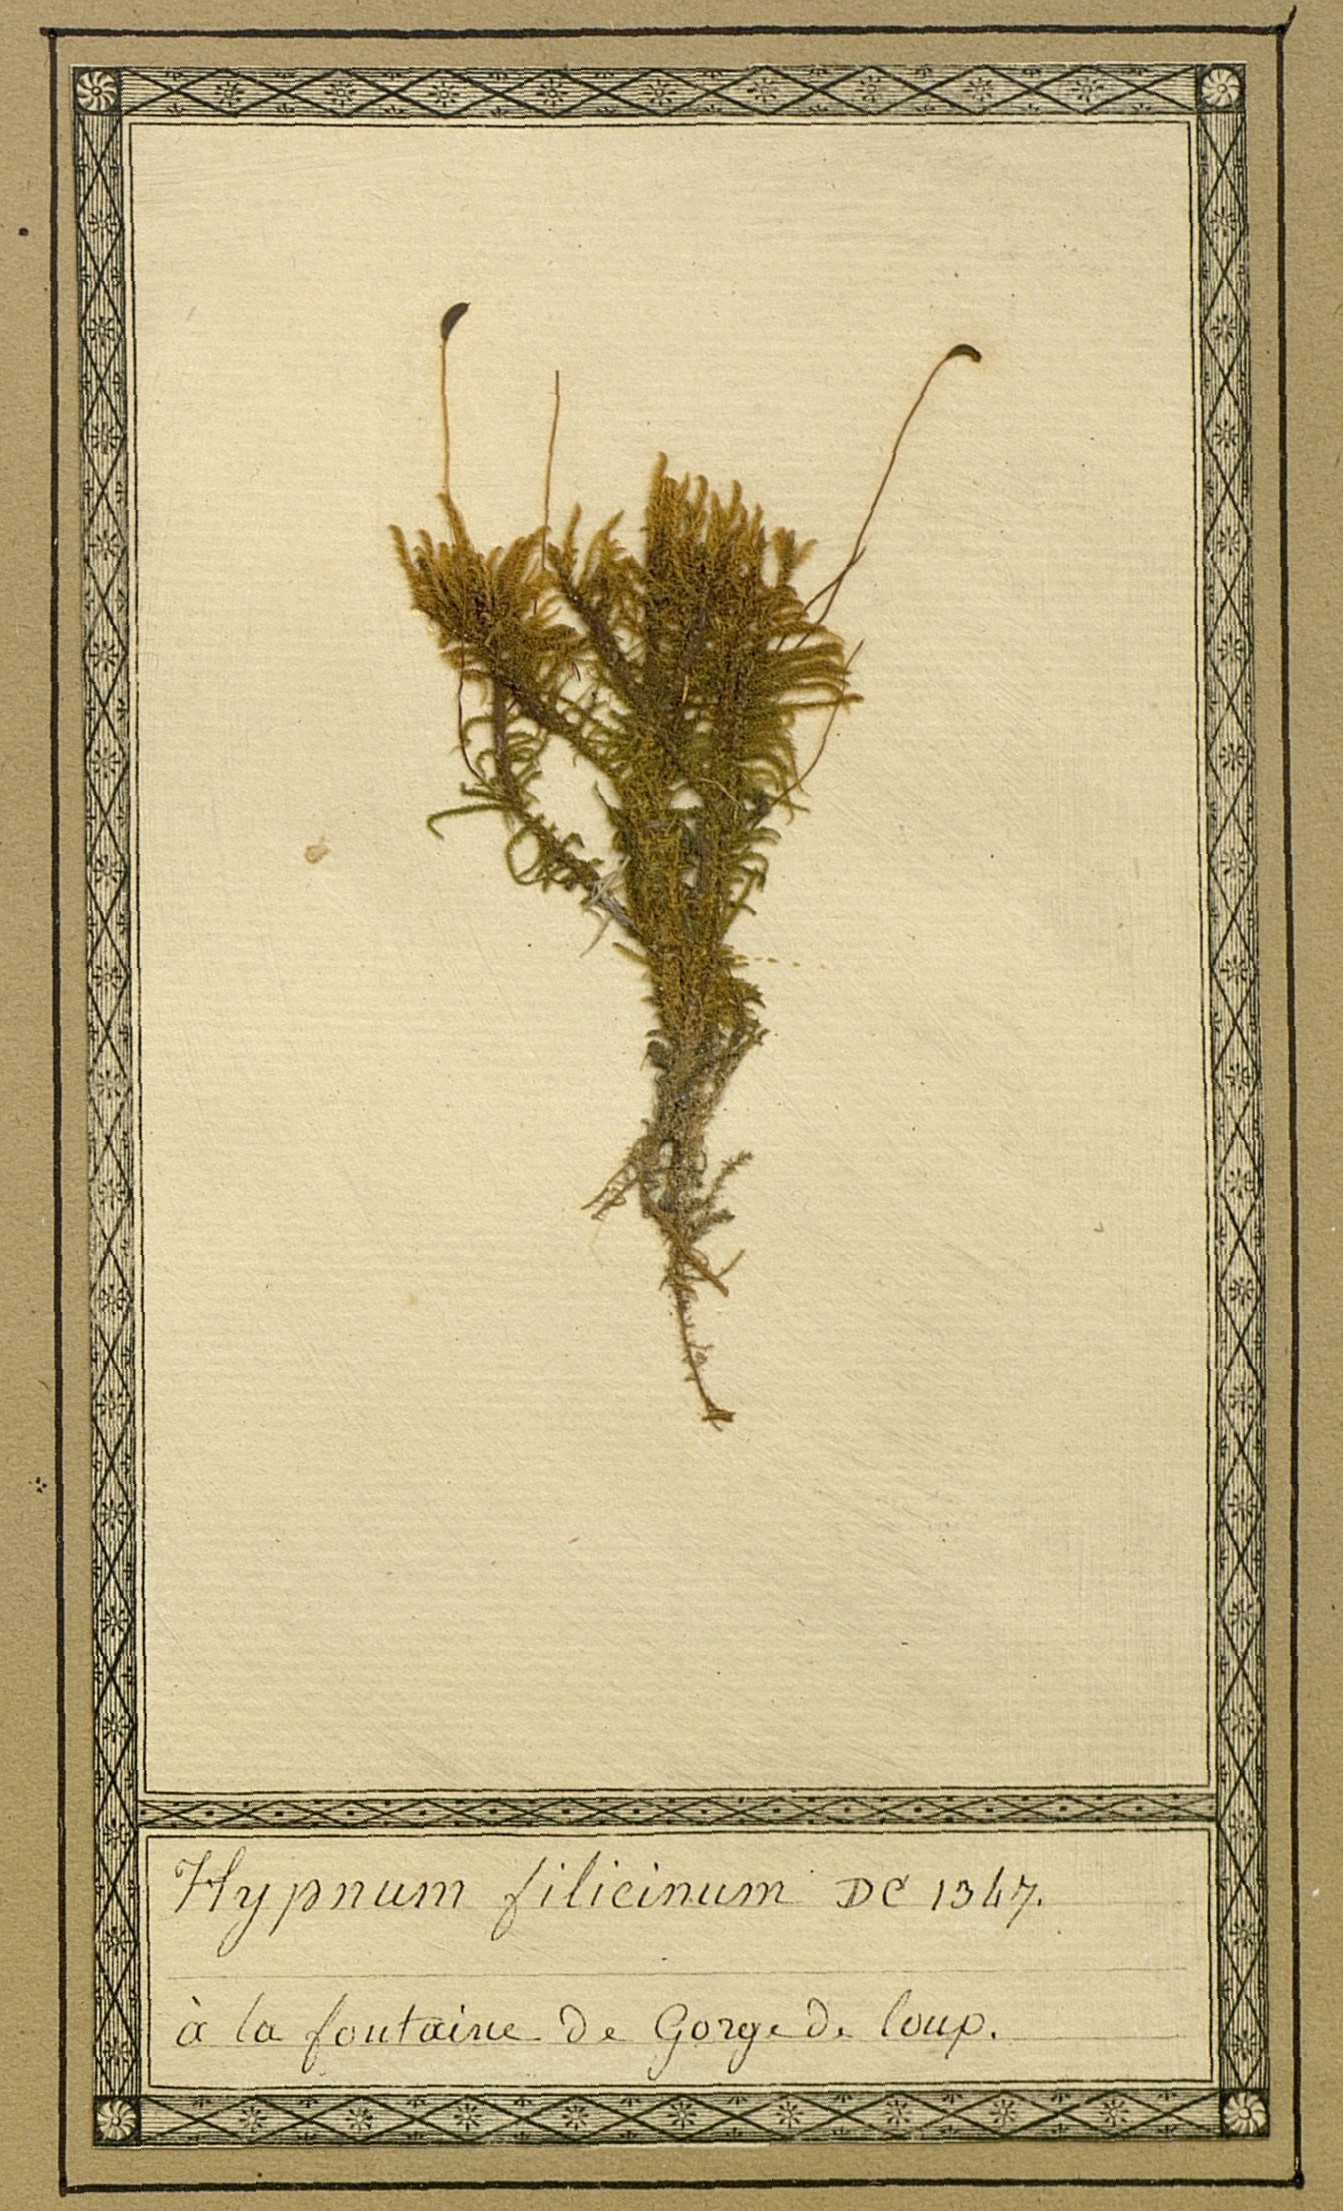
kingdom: Plantae
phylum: Bryophyta
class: Bryopsida
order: Hypnales
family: Amblystegiaceae
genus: Cratoneuron
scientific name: Cratoneuron filicinum
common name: Fern-leaved hook moss
